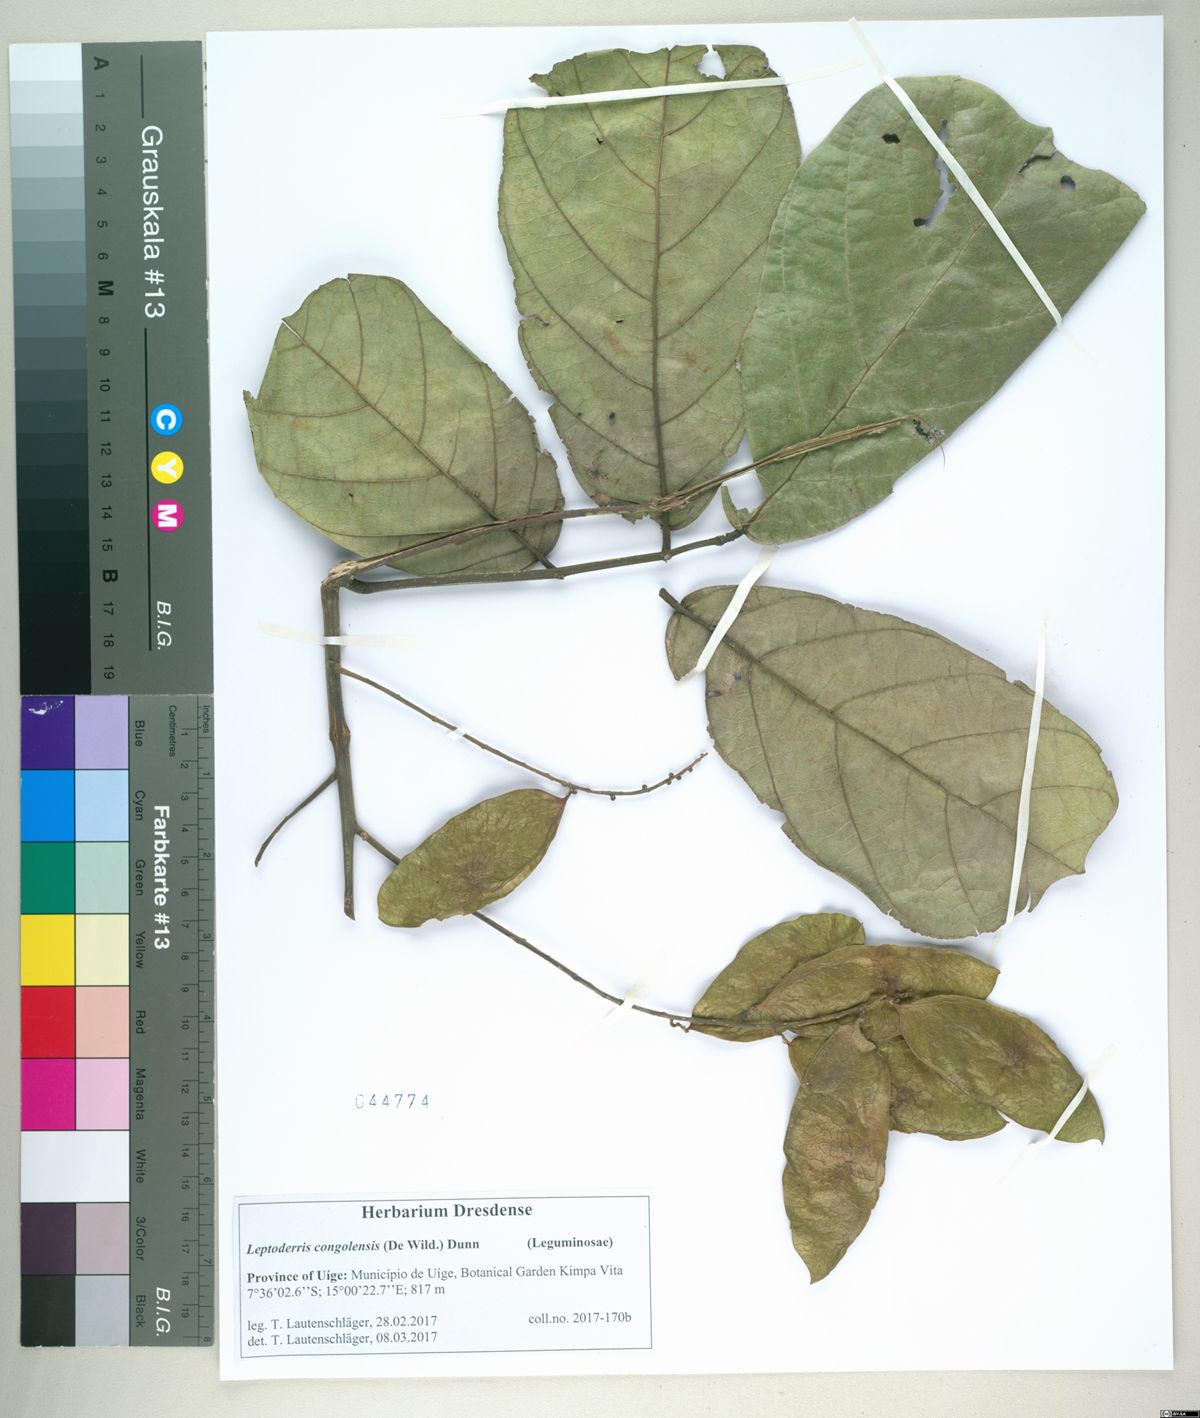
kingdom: Plantae
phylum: Tracheophyta
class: Magnoliopsida
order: Fabales
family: Fabaceae
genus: Leptoderris
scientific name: Leptoderris congolensis
